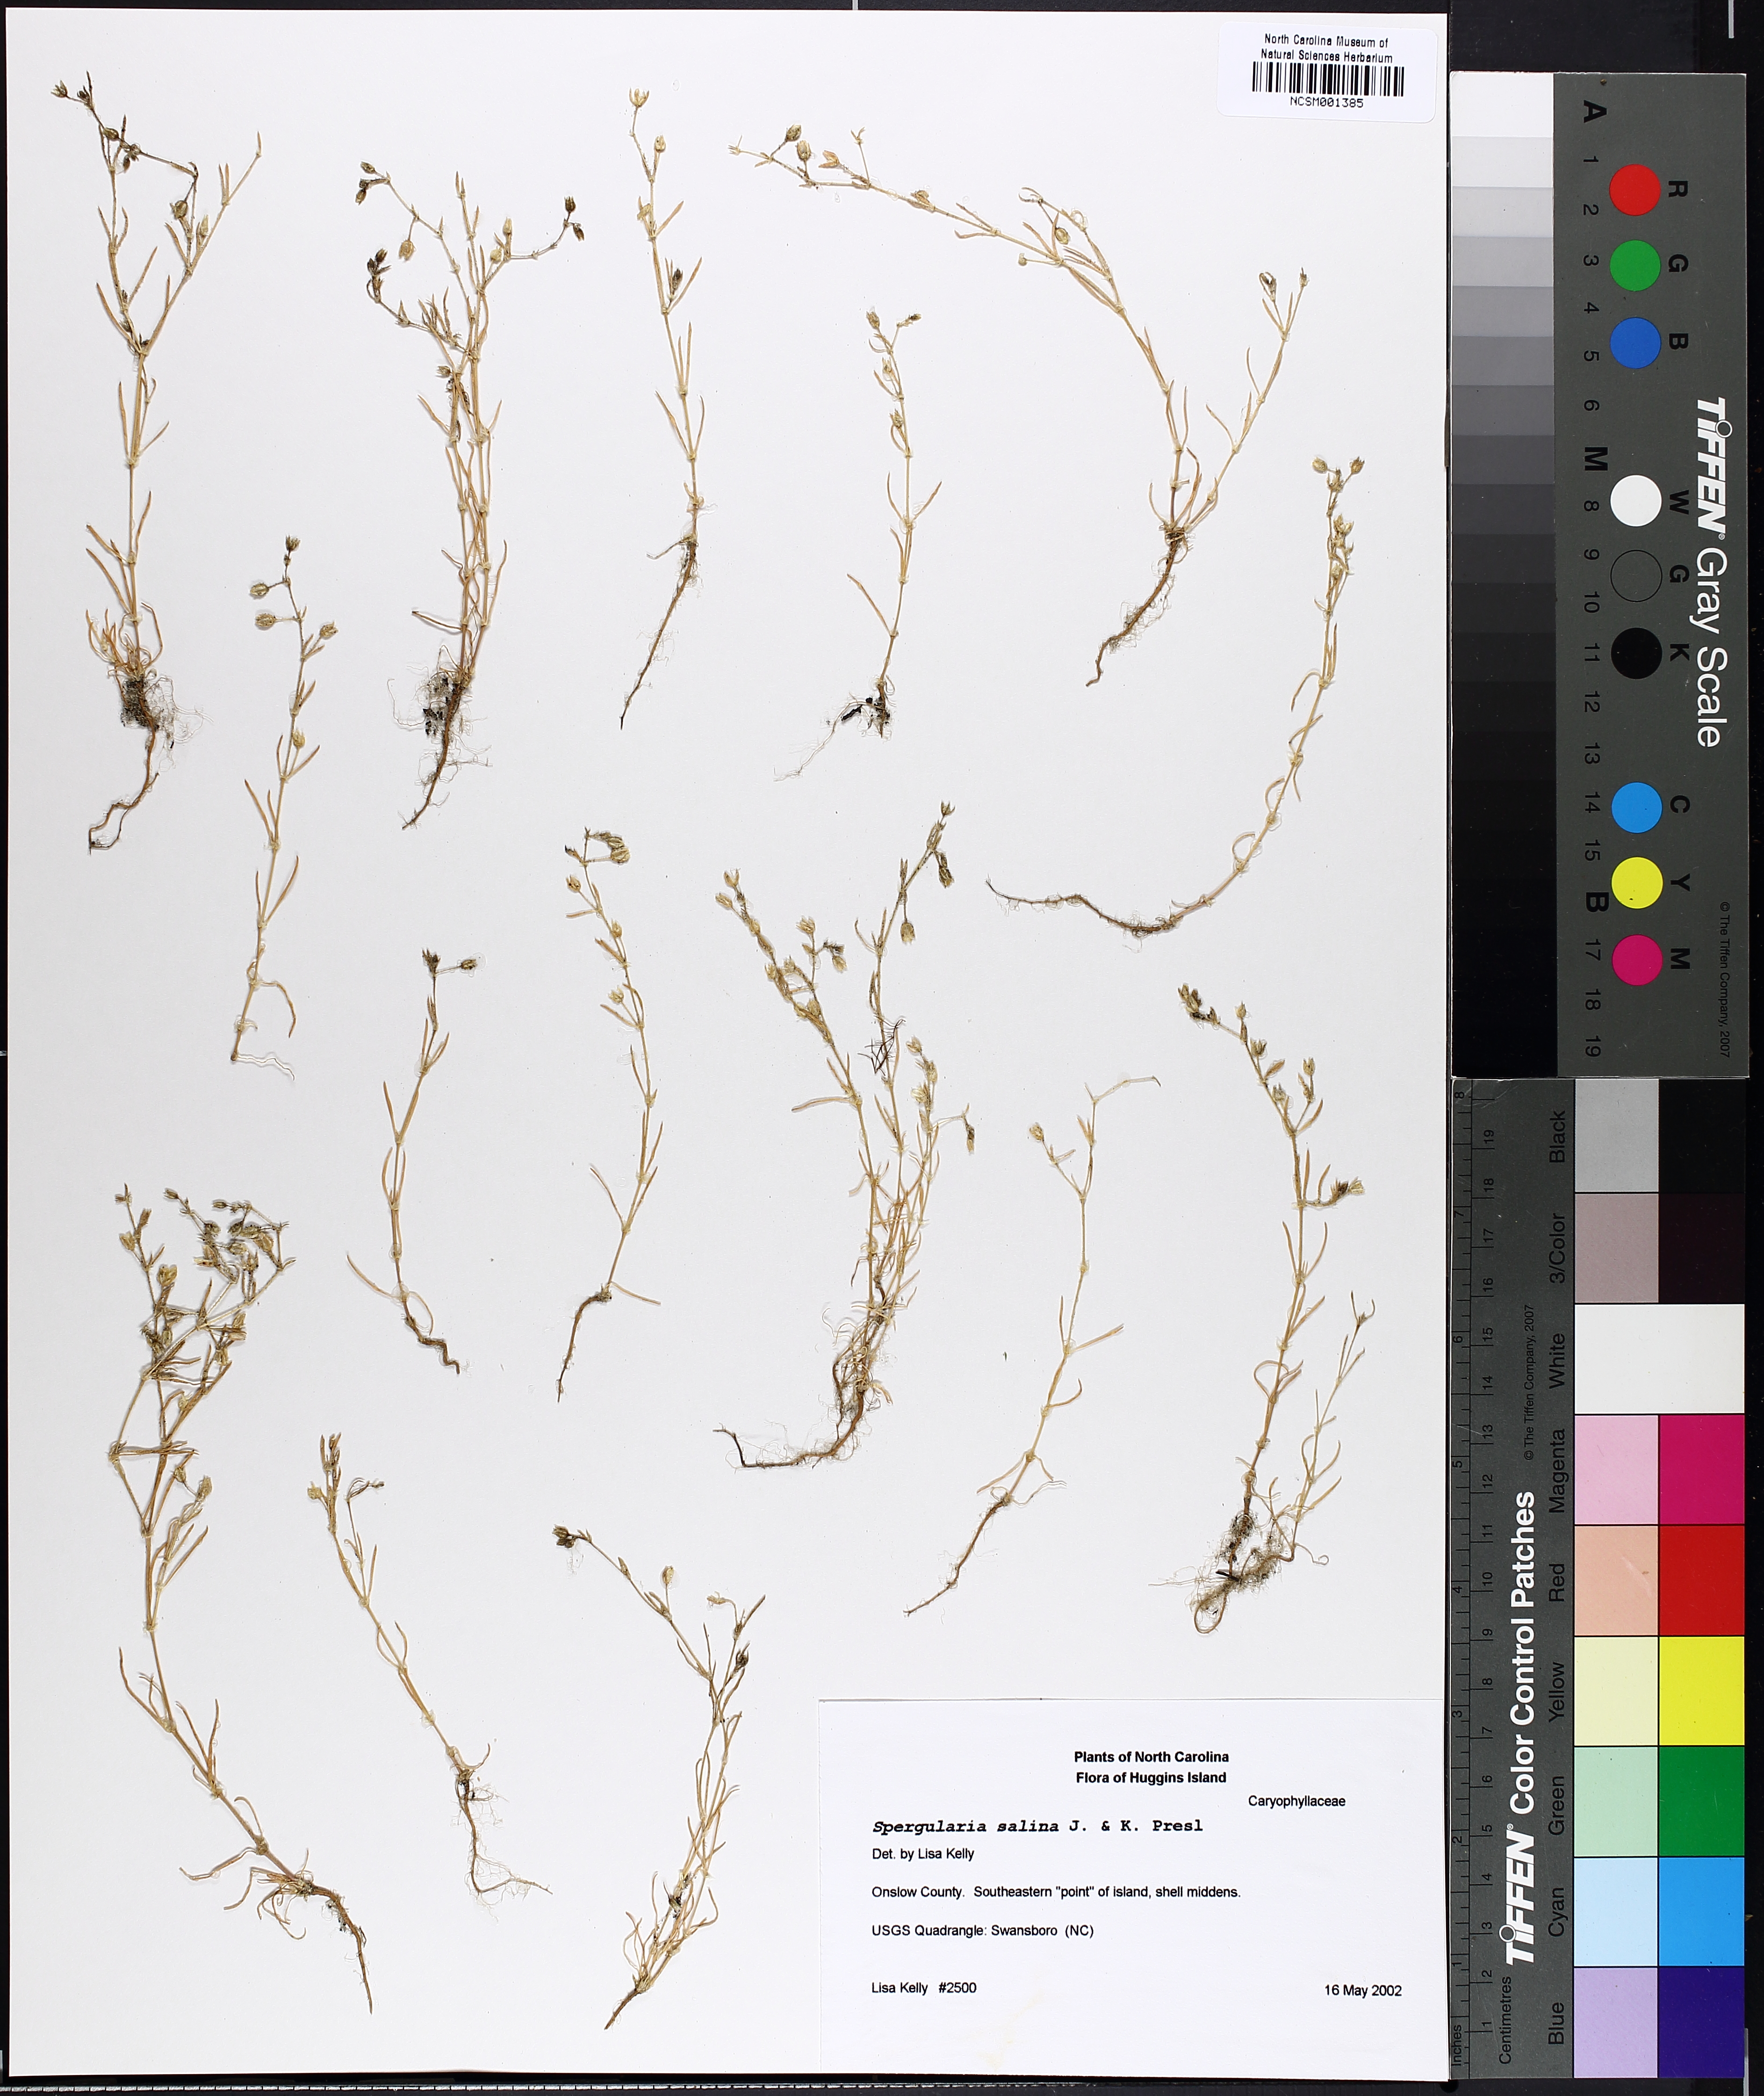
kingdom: Plantae
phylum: Tracheophyta
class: Magnoliopsida
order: Caryophyllales
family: Caryophyllaceae
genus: Spergularia
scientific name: Spergularia marina
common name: Lesser sea-spurrey
